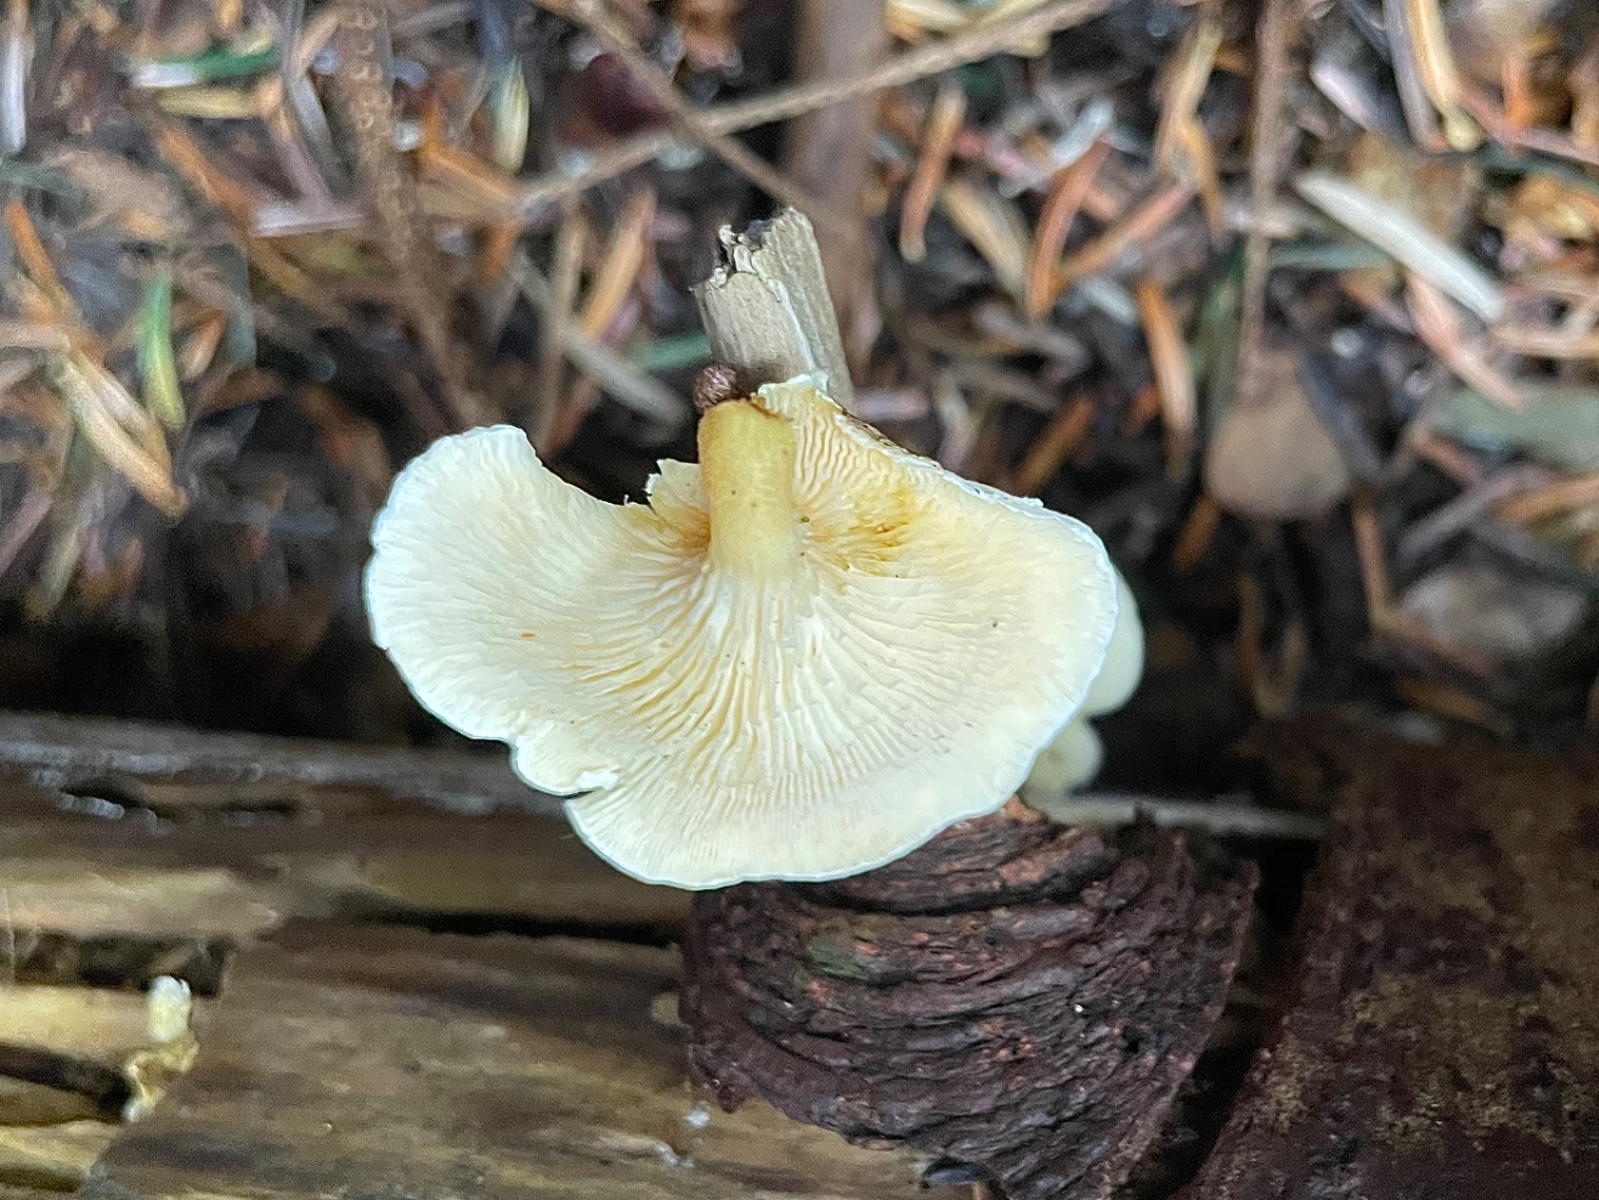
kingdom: Fungi
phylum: Basidiomycota
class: Agaricomycetes
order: Boletales
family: Hygrophoropsidaceae
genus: Hygrophoropsis
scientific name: Hygrophoropsis pallida
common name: bleg orangekantarel
